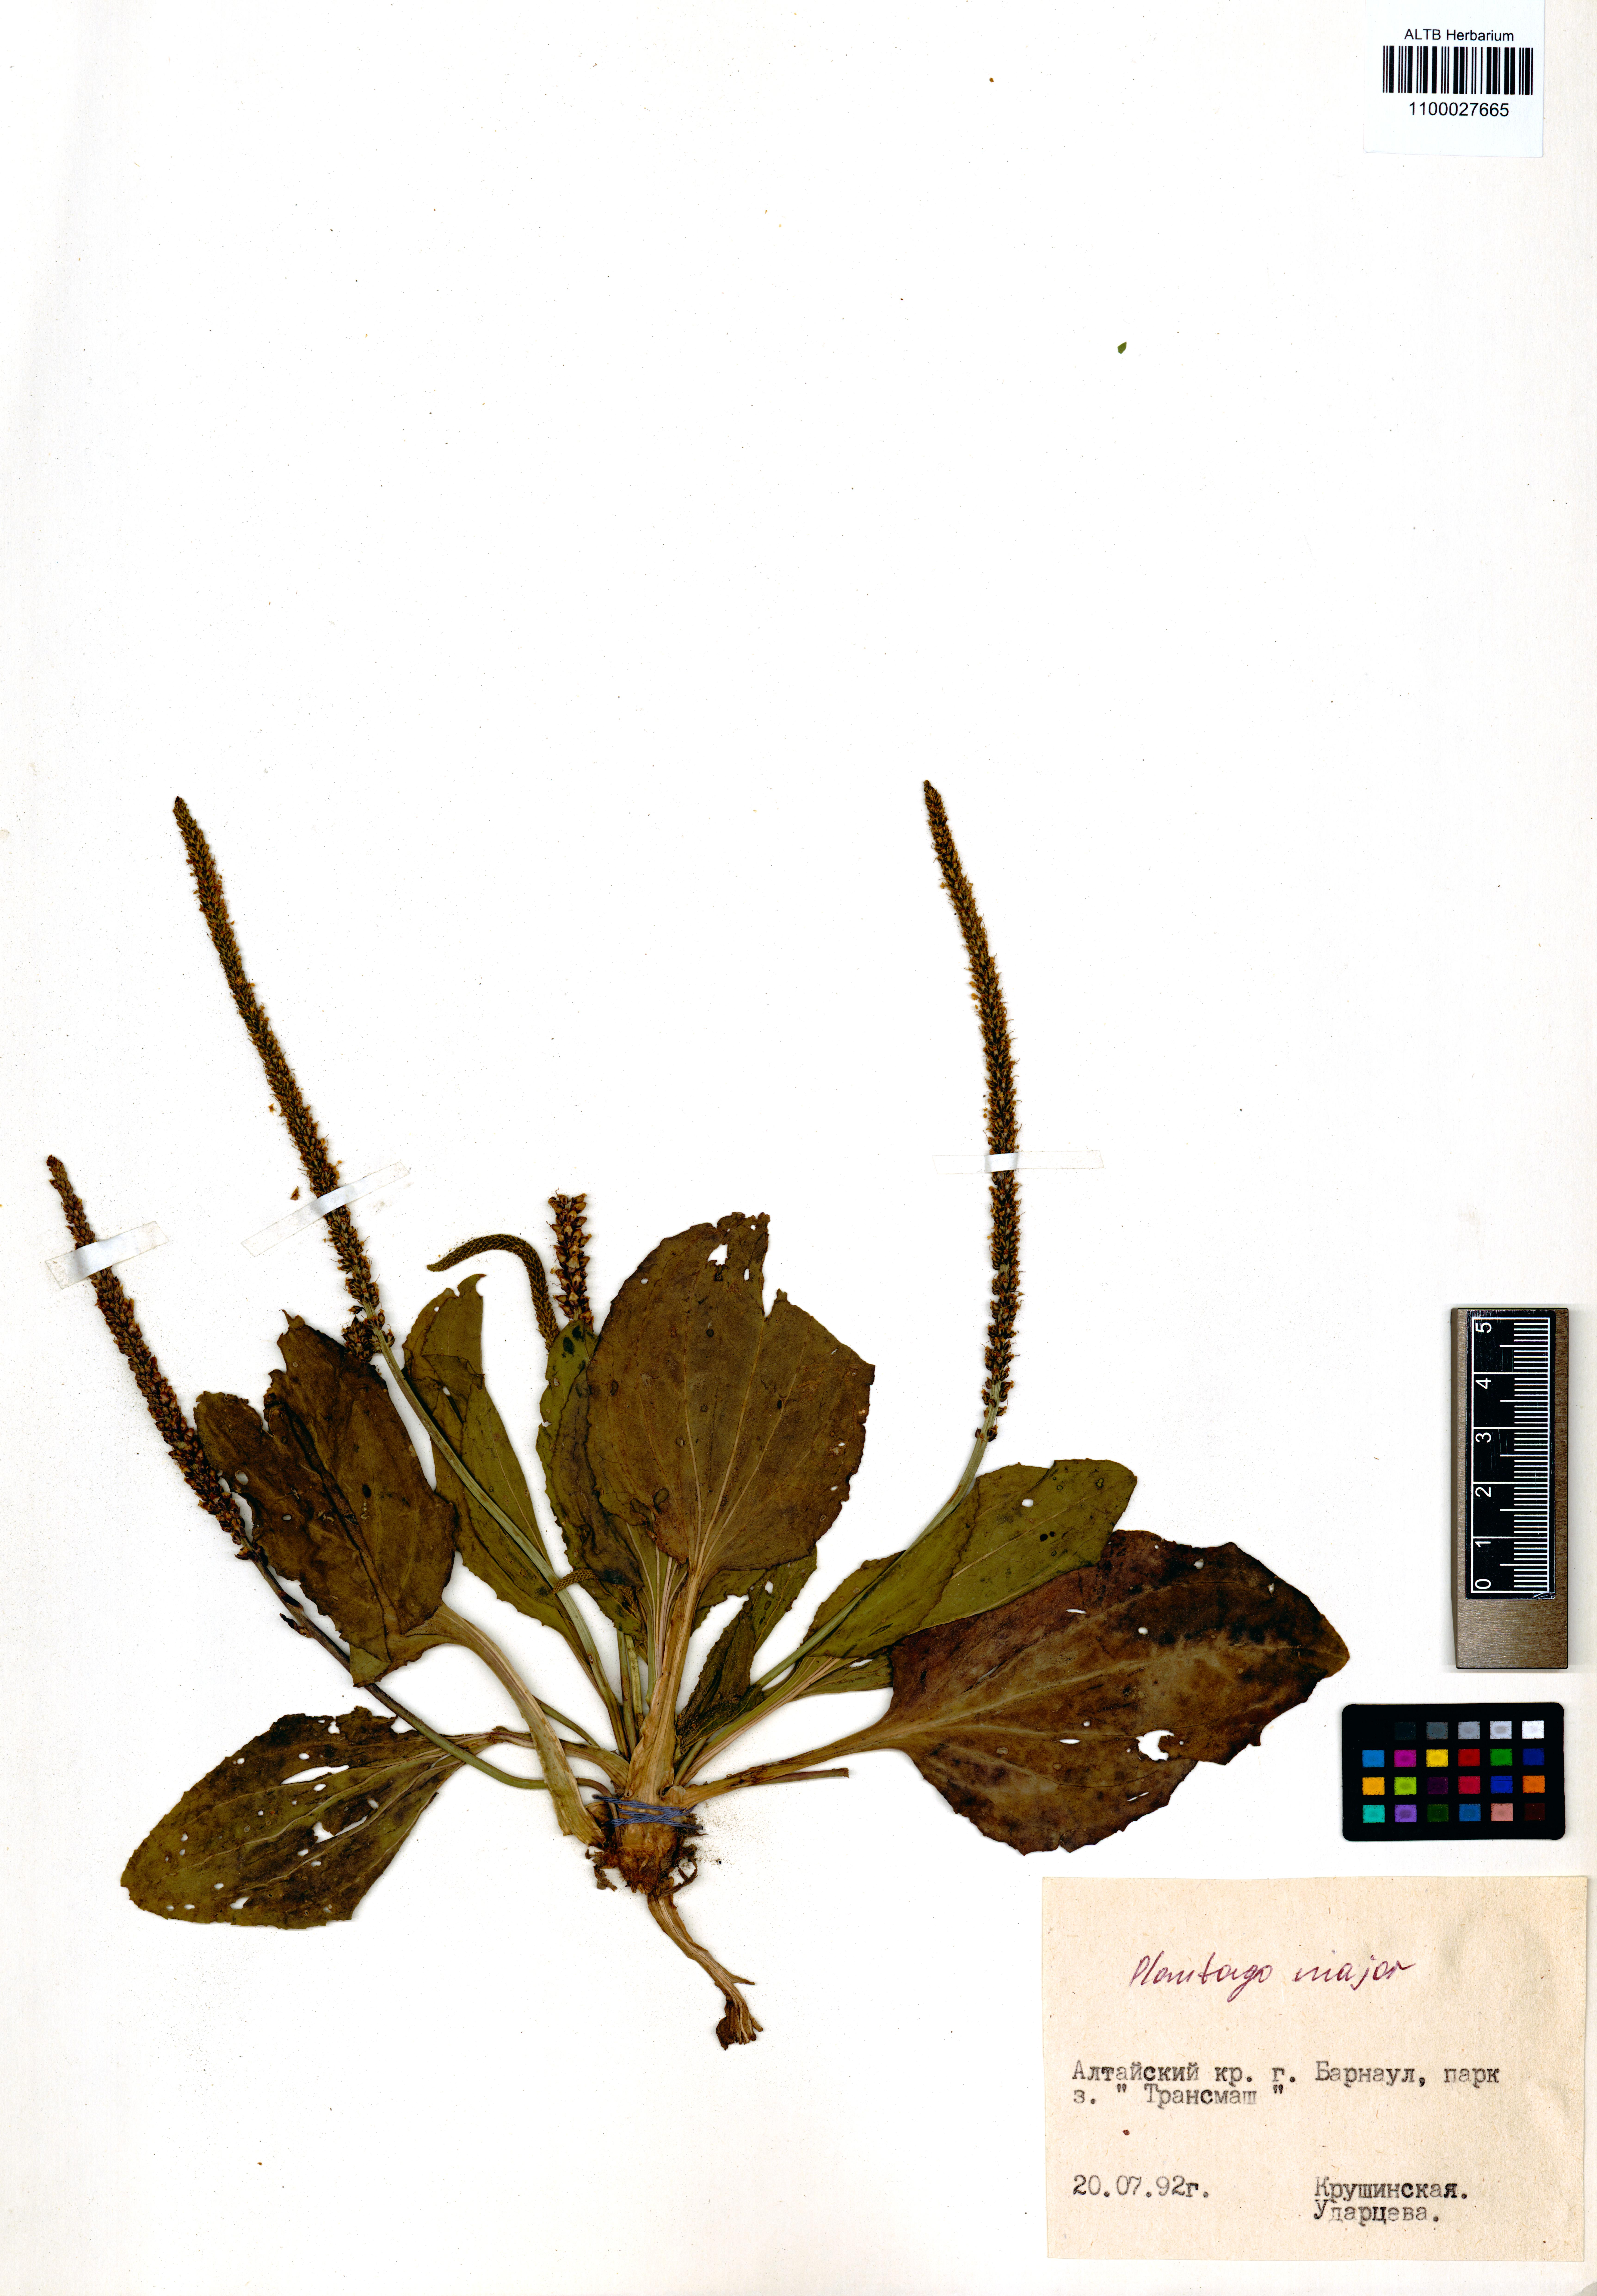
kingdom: Plantae
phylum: Tracheophyta
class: Magnoliopsida
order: Lamiales
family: Plantaginaceae
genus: Plantago
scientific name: Plantago major
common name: Common plantain
